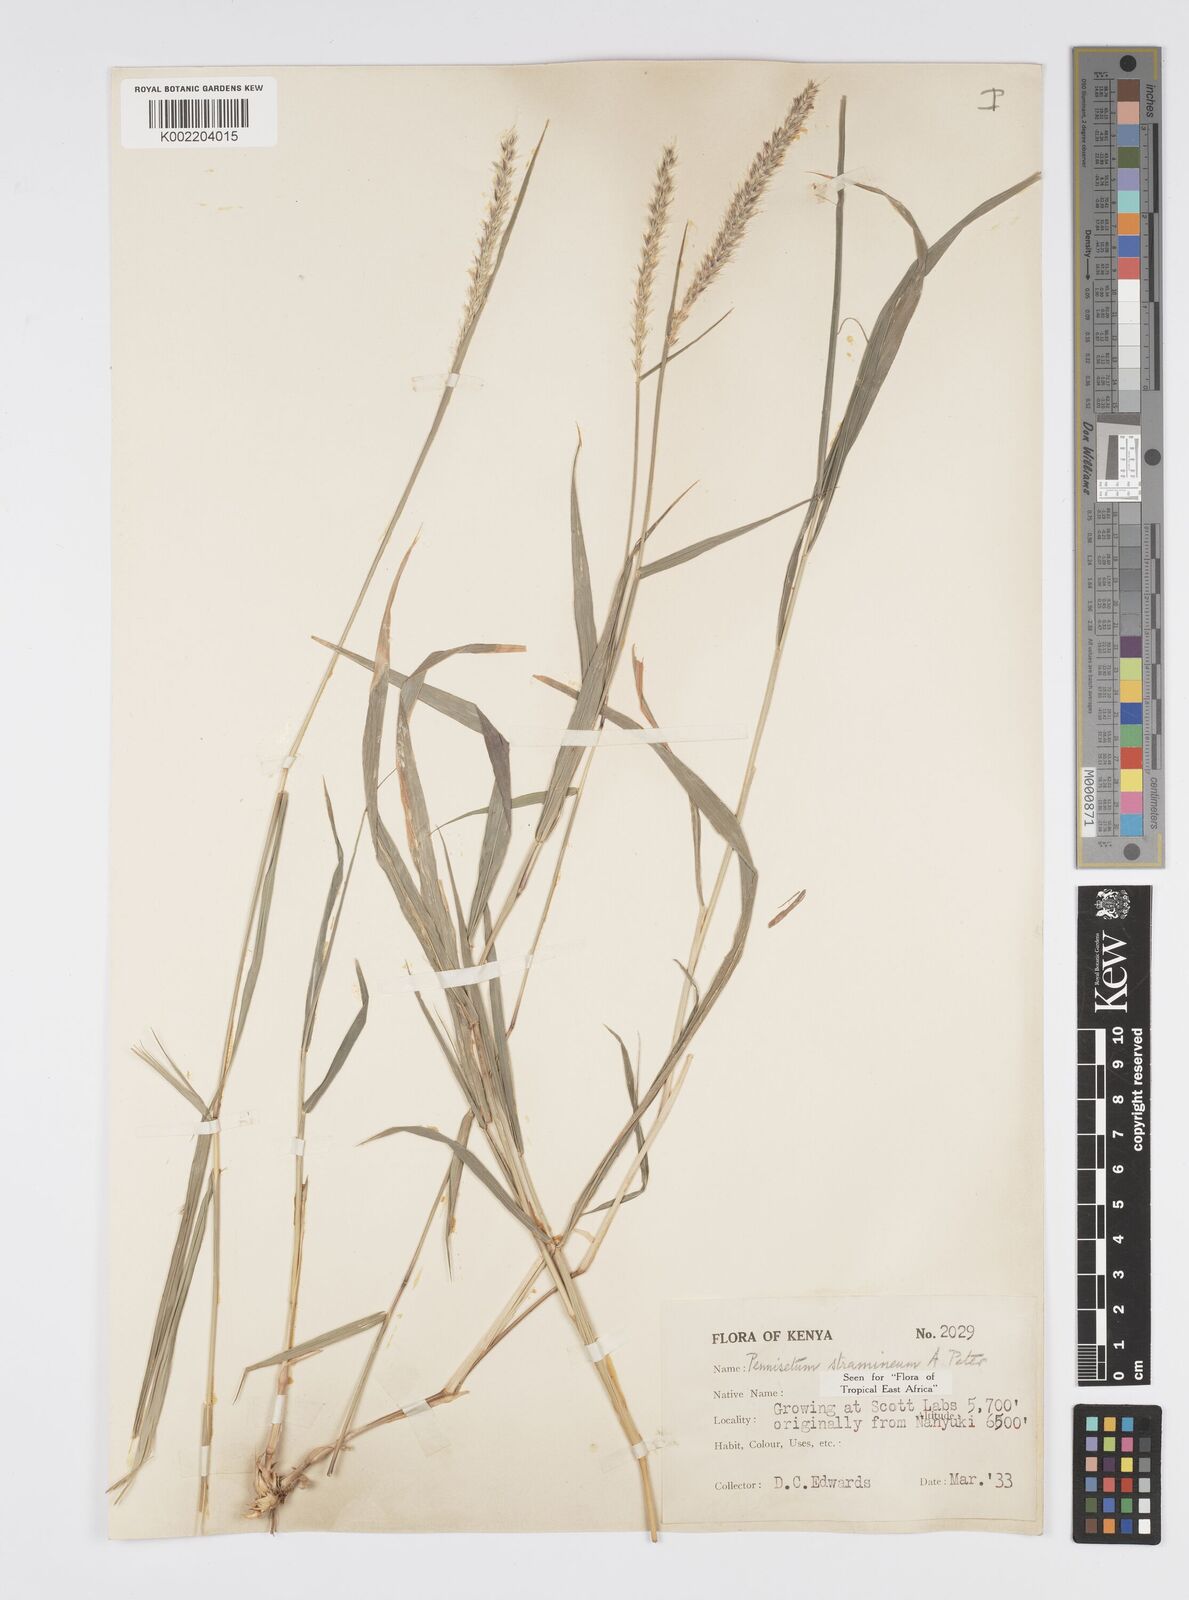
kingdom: Plantae
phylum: Tracheophyta
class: Liliopsida
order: Poales
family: Poaceae
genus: Cenchrus
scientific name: Cenchrus stramineus
